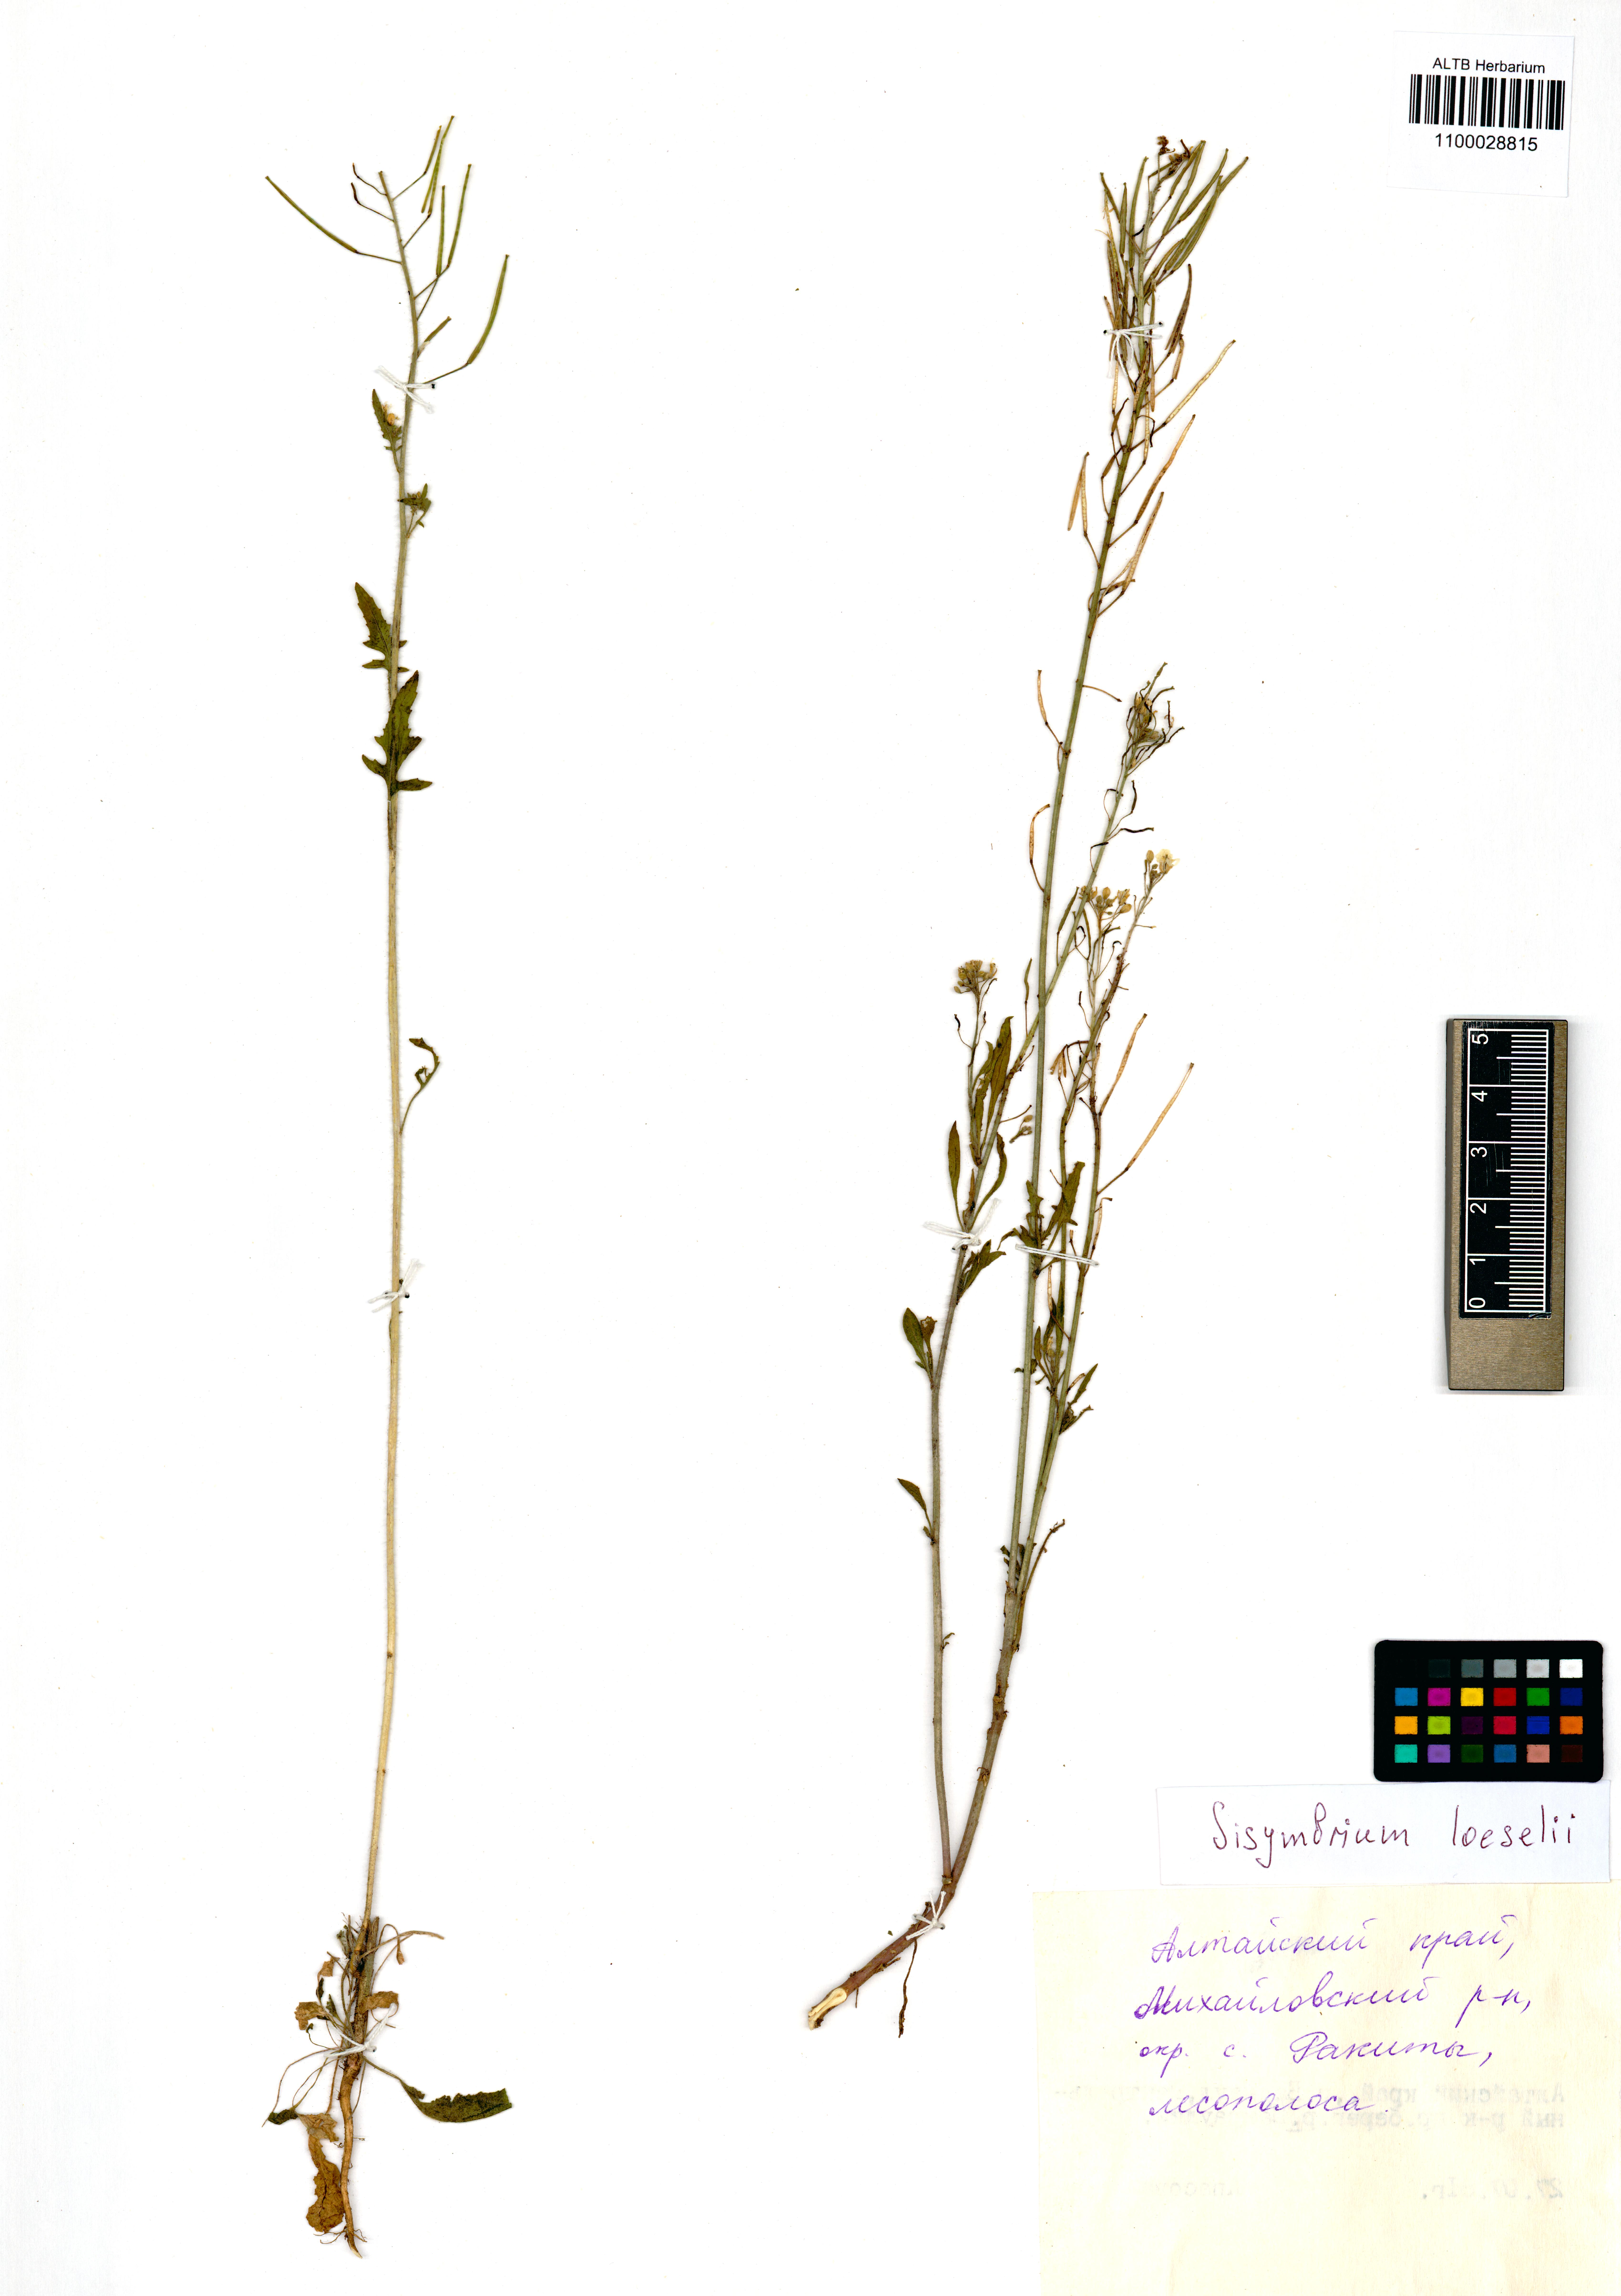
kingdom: Plantae
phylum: Tracheophyta
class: Magnoliopsida
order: Brassicales
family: Brassicaceae
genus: Sisymbrium
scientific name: Sisymbrium loeselii
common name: False london-rocket
